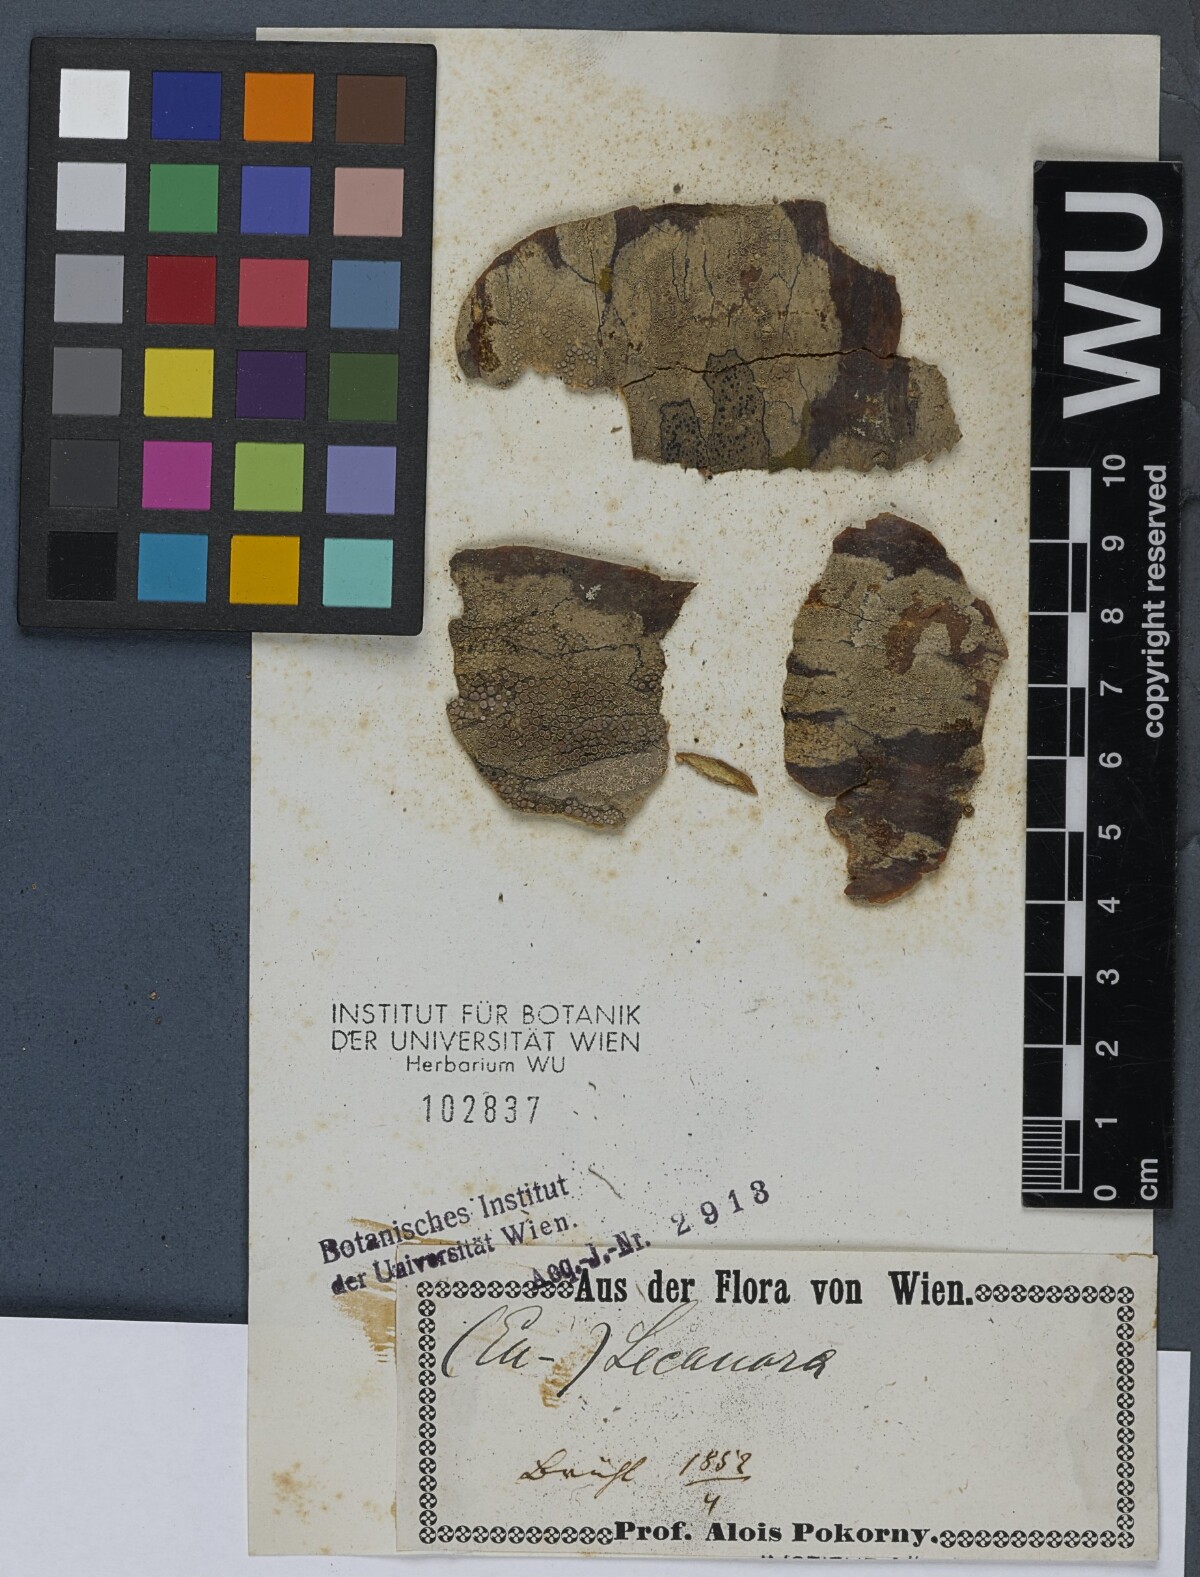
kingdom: Fungi
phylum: Ascomycota
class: Lecanoromycetes
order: Lecanorales
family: Lecanoraceae
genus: Lecanora
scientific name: Lecanora
